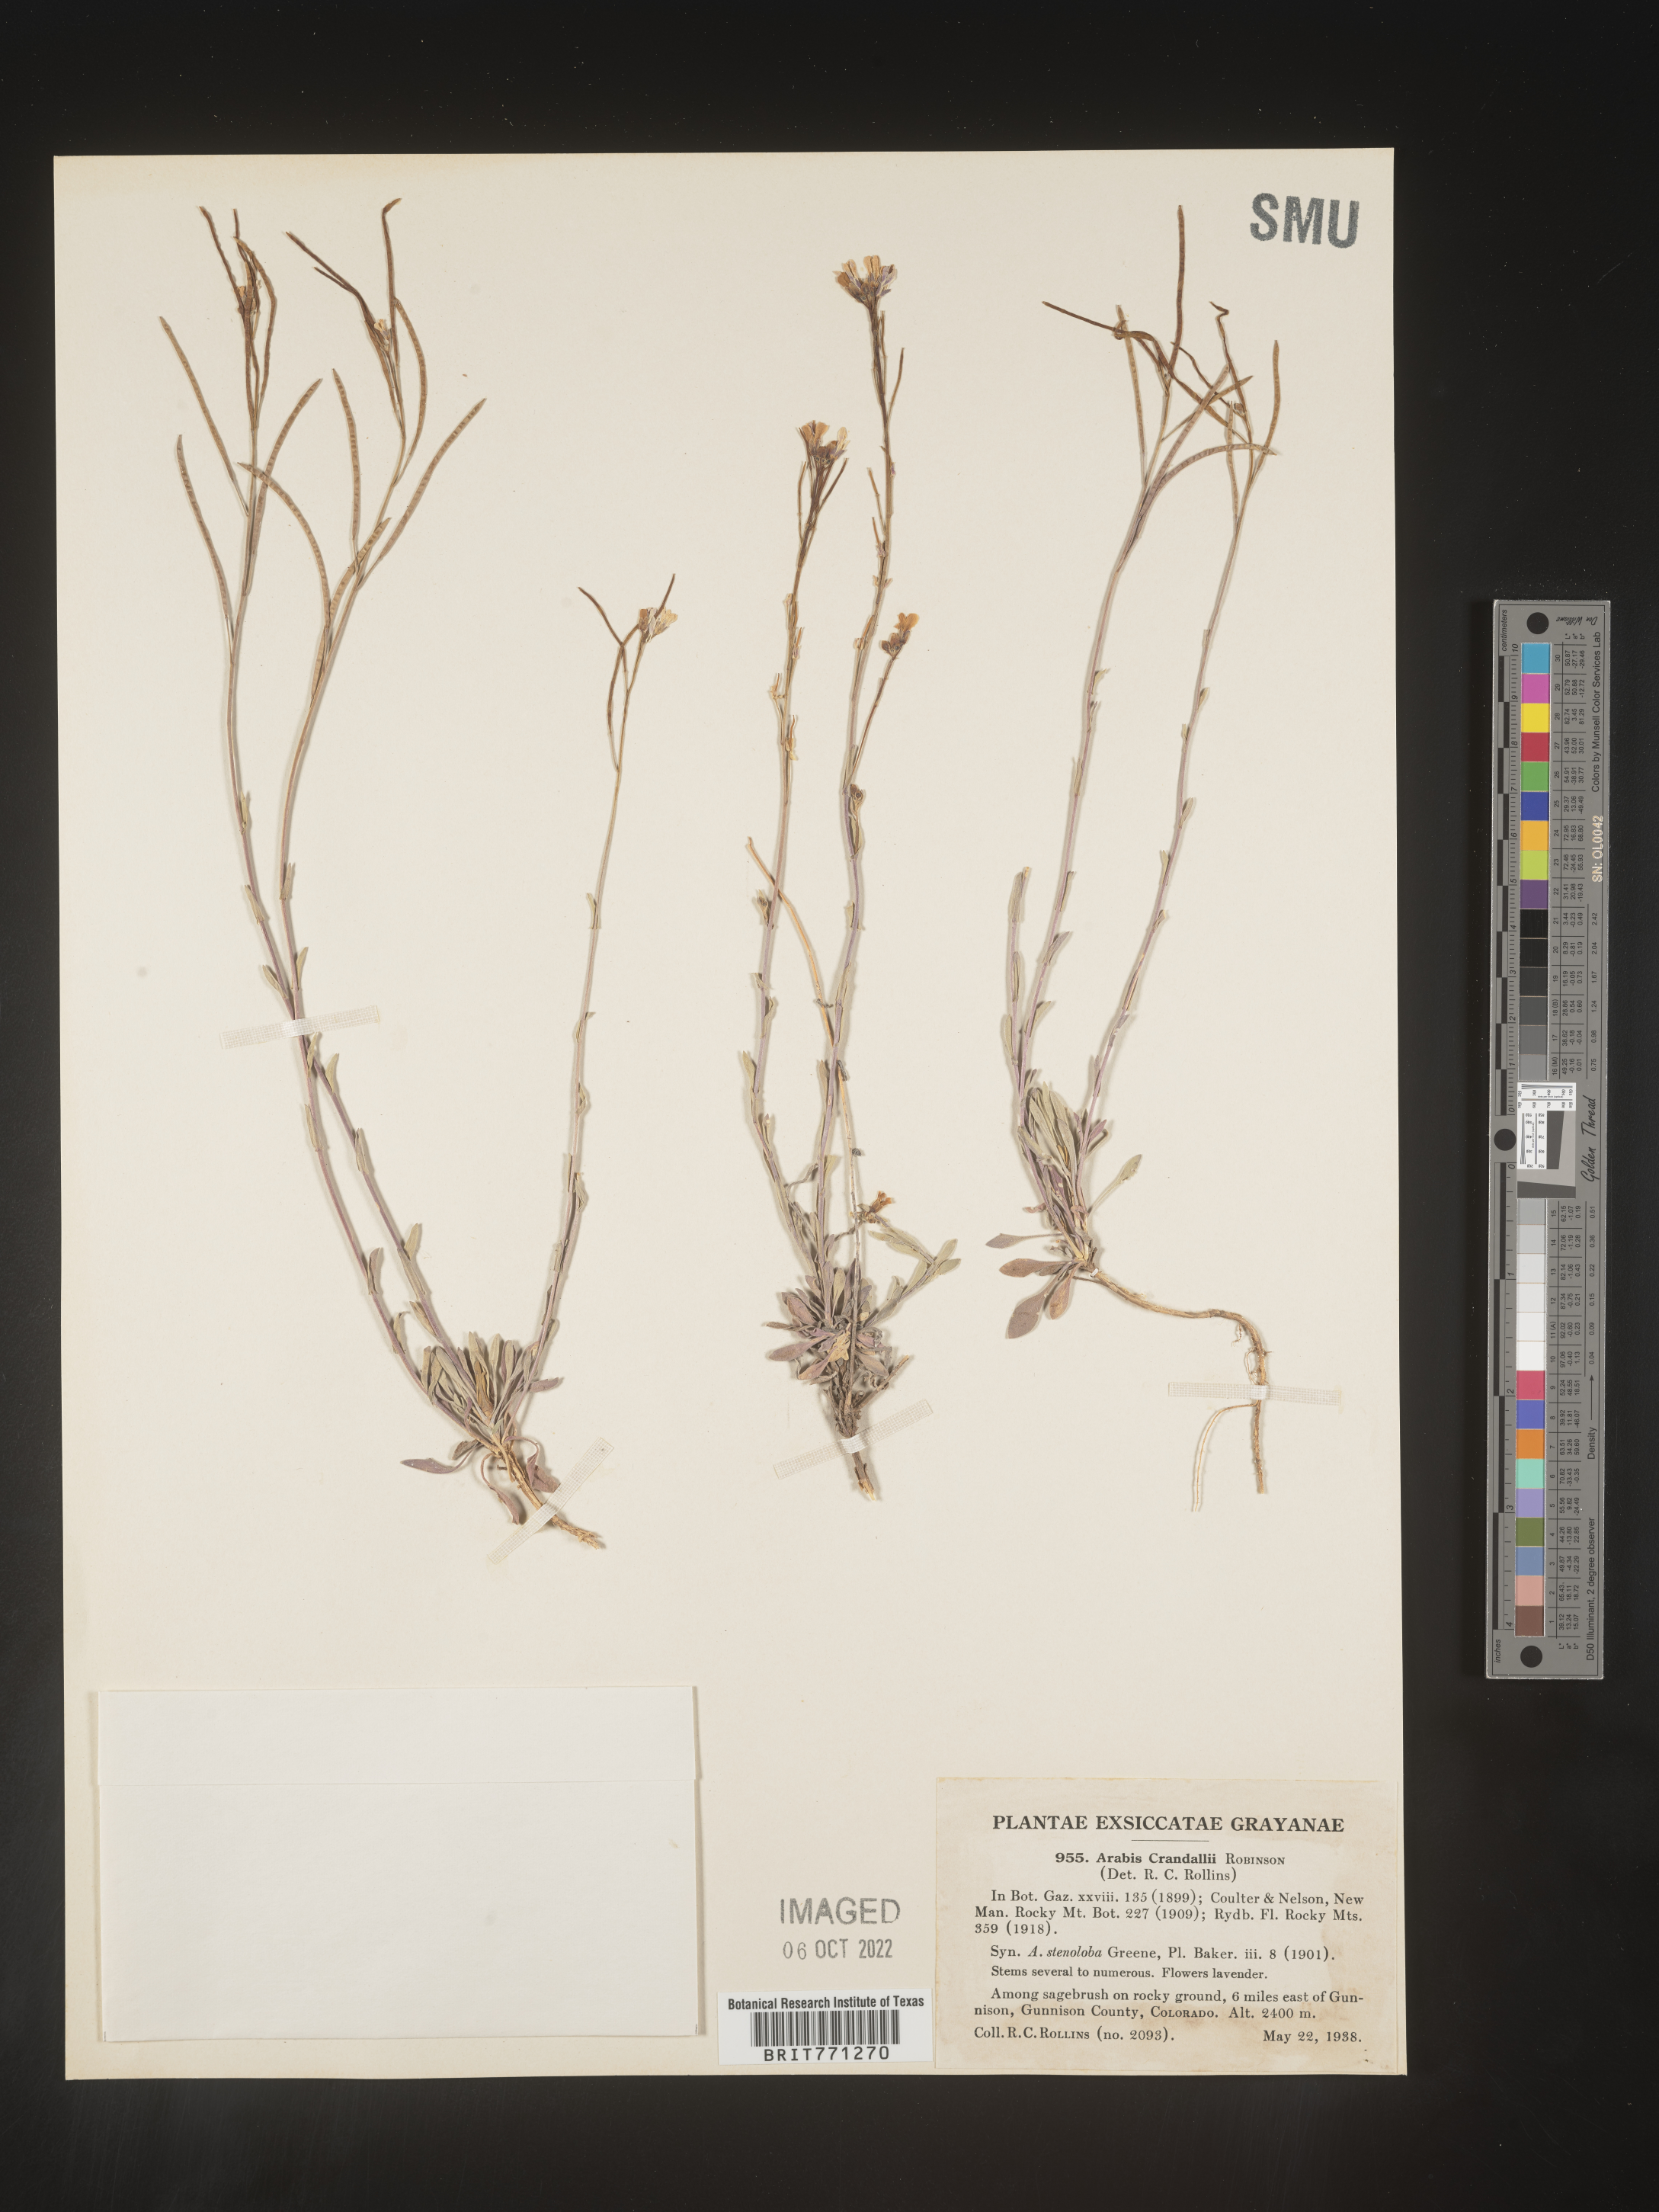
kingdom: Plantae
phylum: Tracheophyta
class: Magnoliopsida
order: Brassicales
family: Brassicaceae
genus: Arabis
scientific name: Arabis
